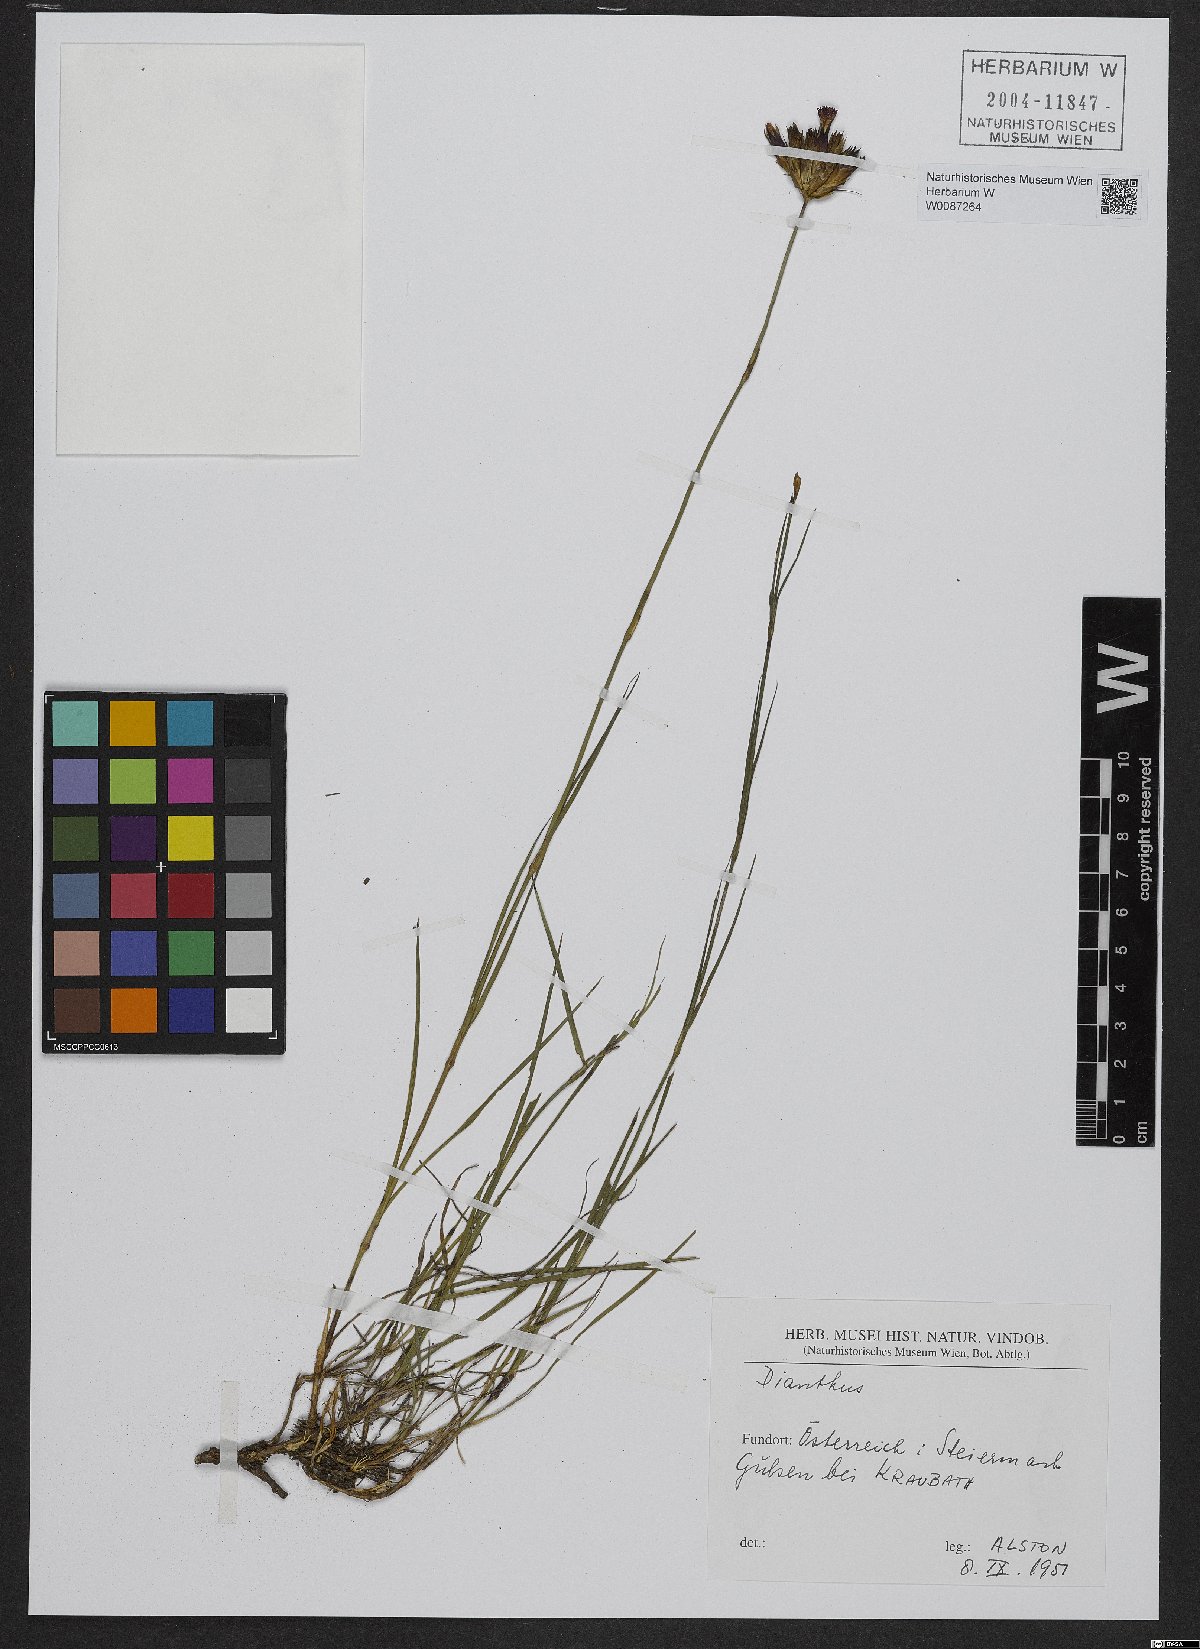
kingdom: Plantae
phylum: Tracheophyta
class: Magnoliopsida
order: Caryophyllales
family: Caryophyllaceae
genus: Dianthus
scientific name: Dianthus carthusianorum
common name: Carthusian pink
